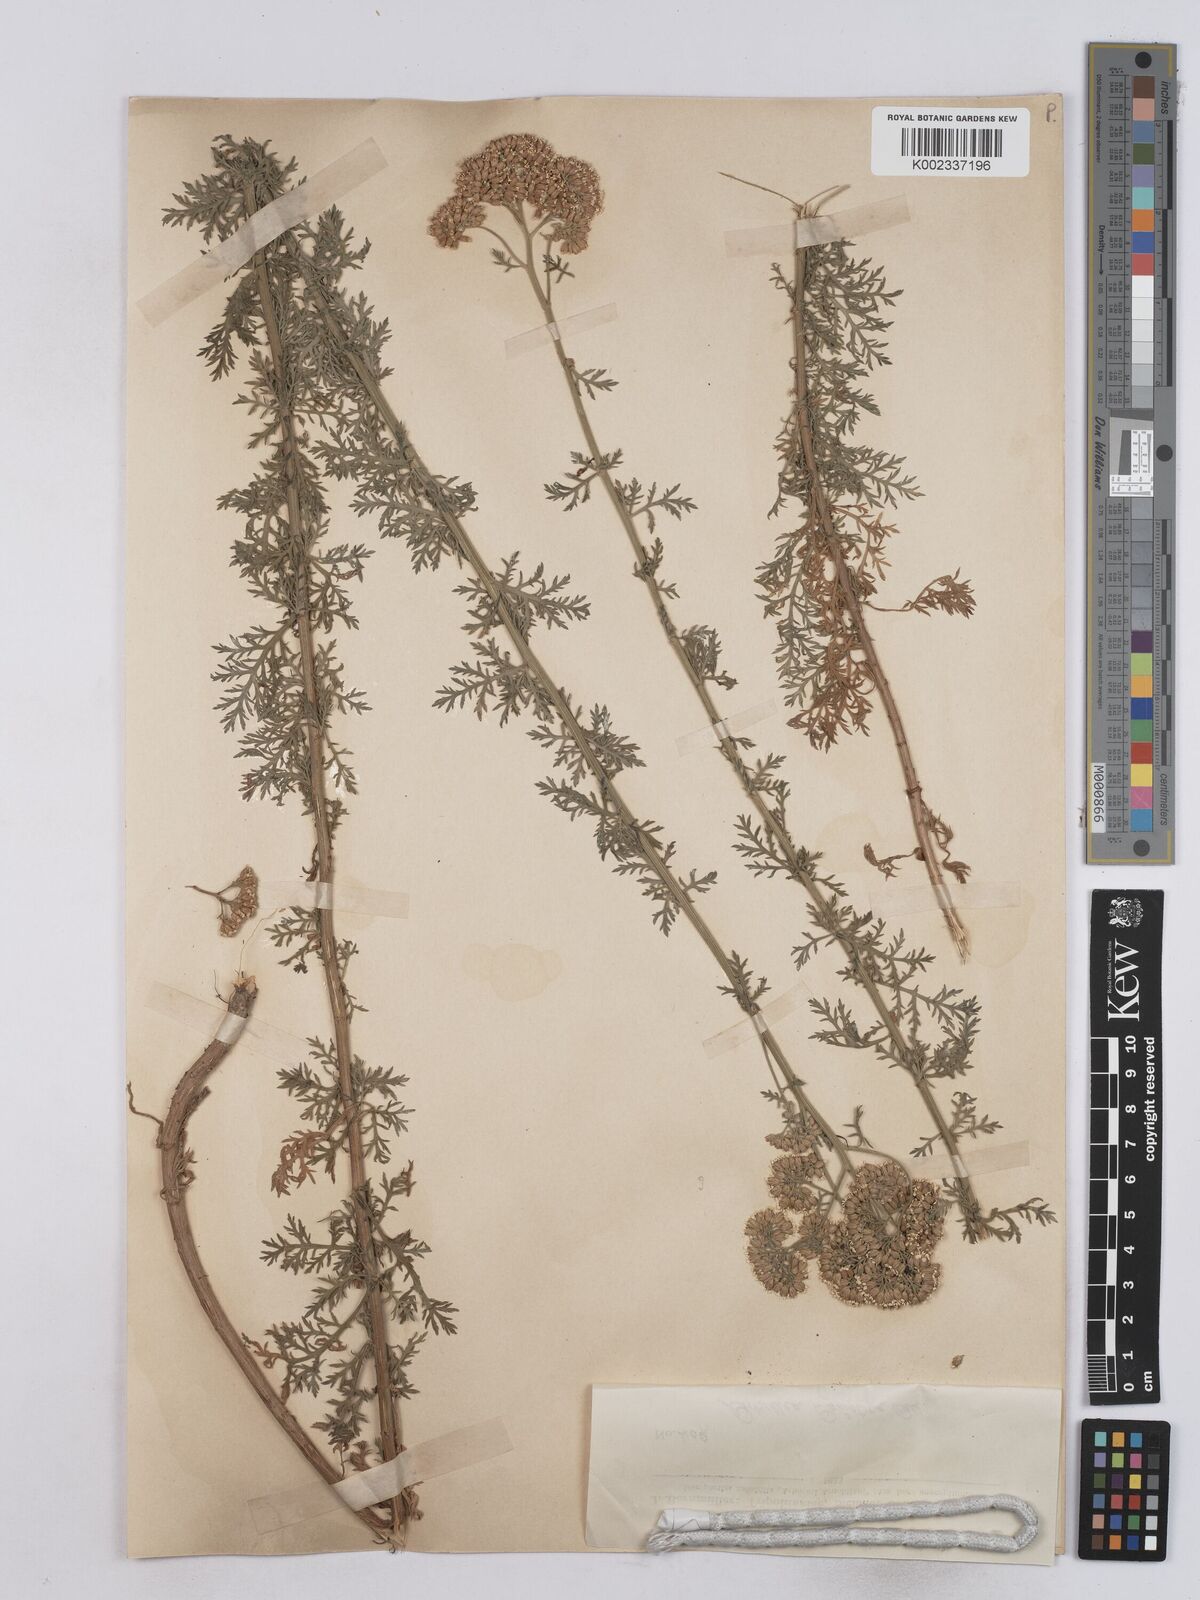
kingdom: Plantae
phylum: Tracheophyta
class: Magnoliopsida
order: Asterales
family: Asteraceae
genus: Achillea
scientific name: Achillea ligustica
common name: Southern yarrow
